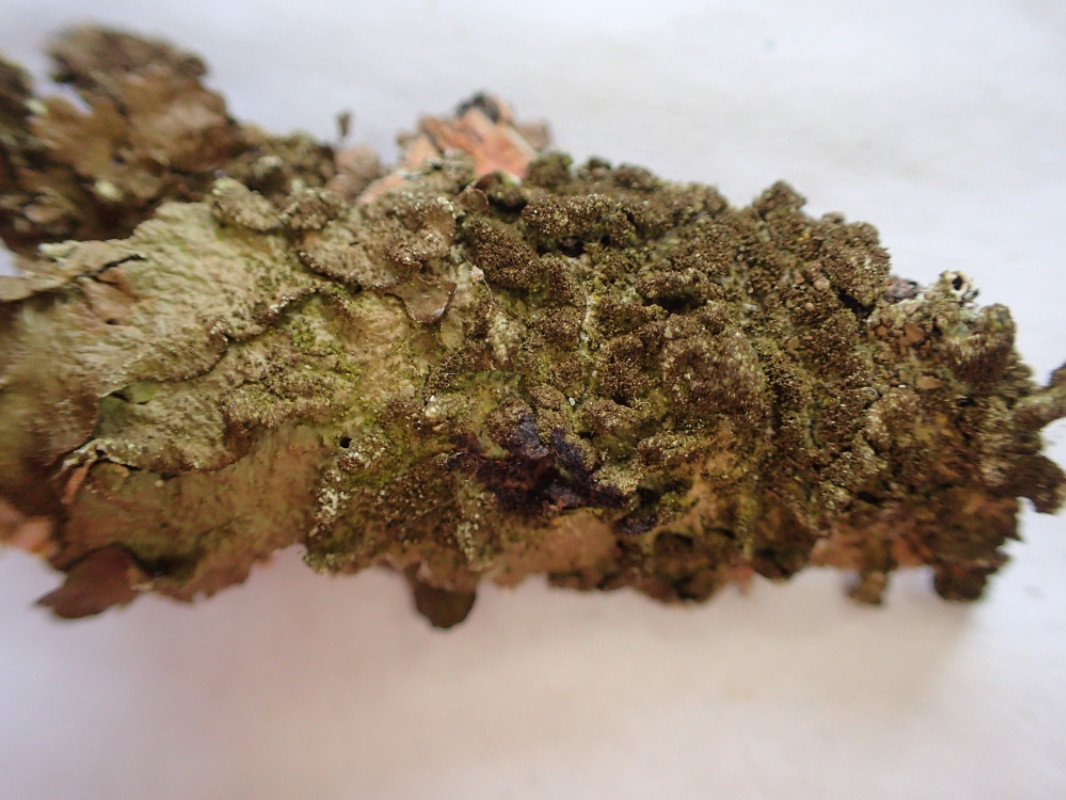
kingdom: Fungi
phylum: Ascomycota
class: Lecanoromycetes
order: Lecanorales
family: Parmeliaceae
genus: Melanelixia
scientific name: Melanelixia subaurifera
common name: guldpudret skållav
